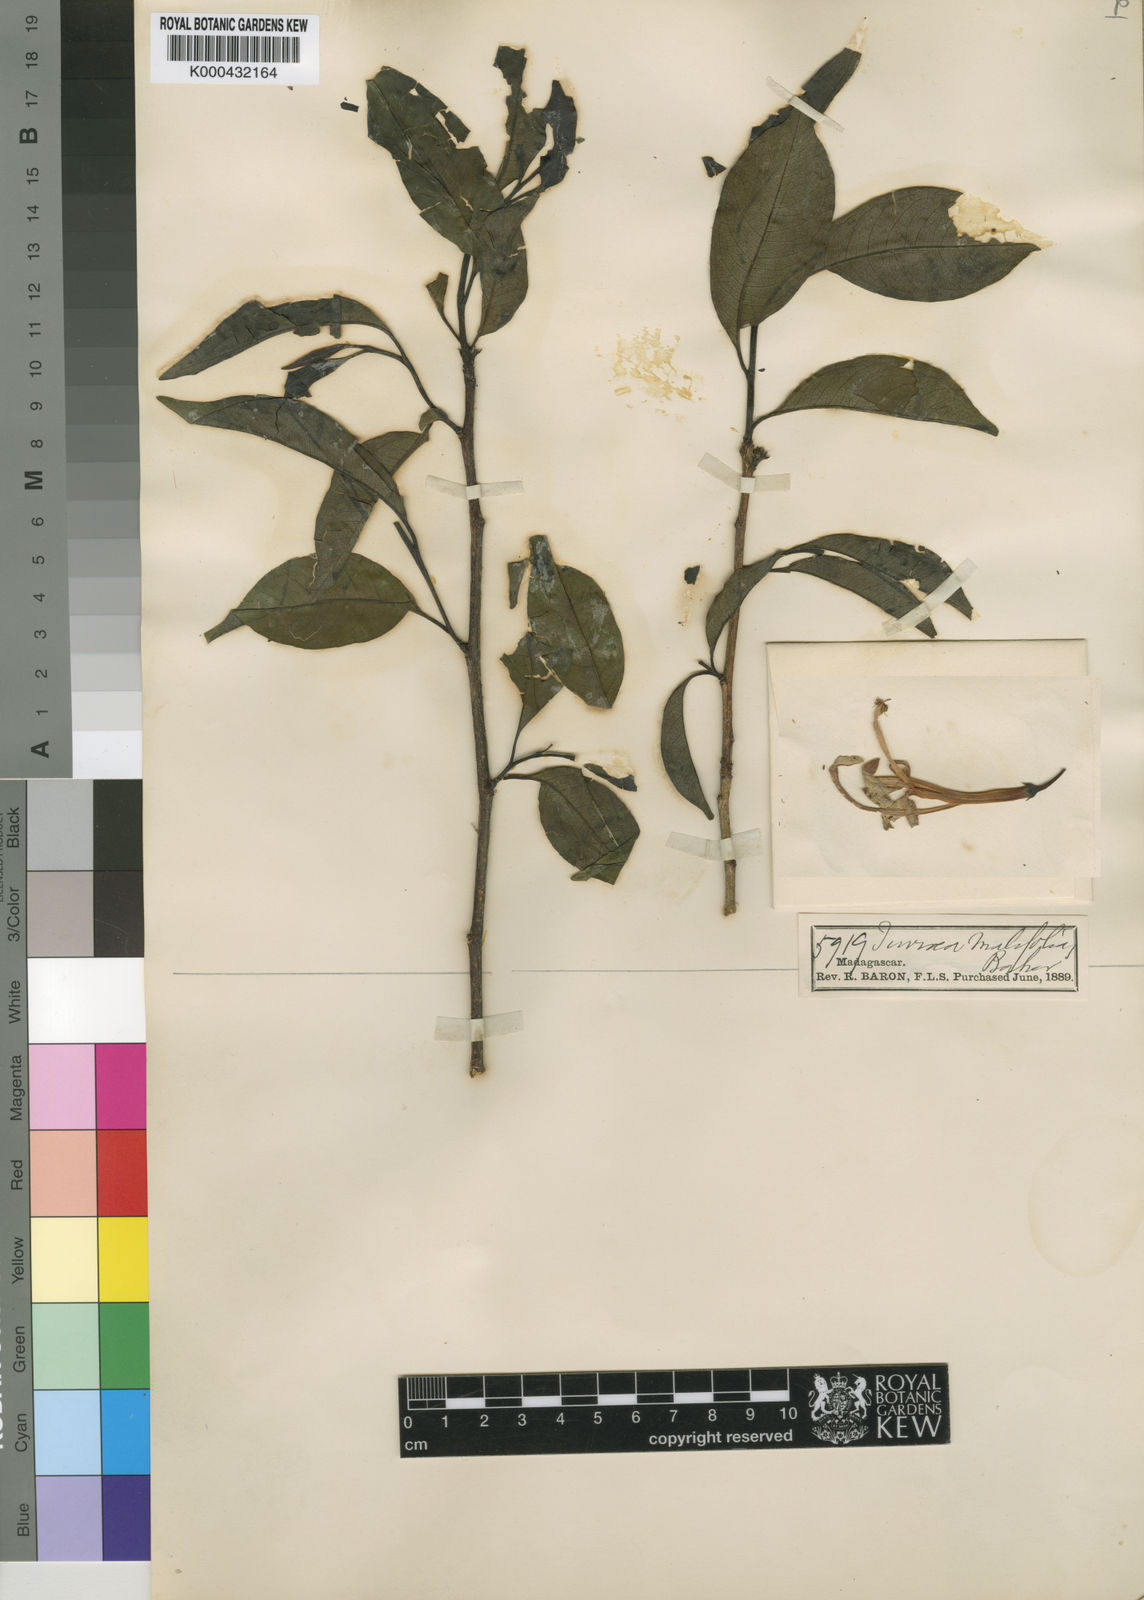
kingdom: Plantae
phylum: Tracheophyta
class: Magnoliopsida
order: Sapindales
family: Meliaceae
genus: Humbertioturraea
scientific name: Humbertioturraea malifolia
